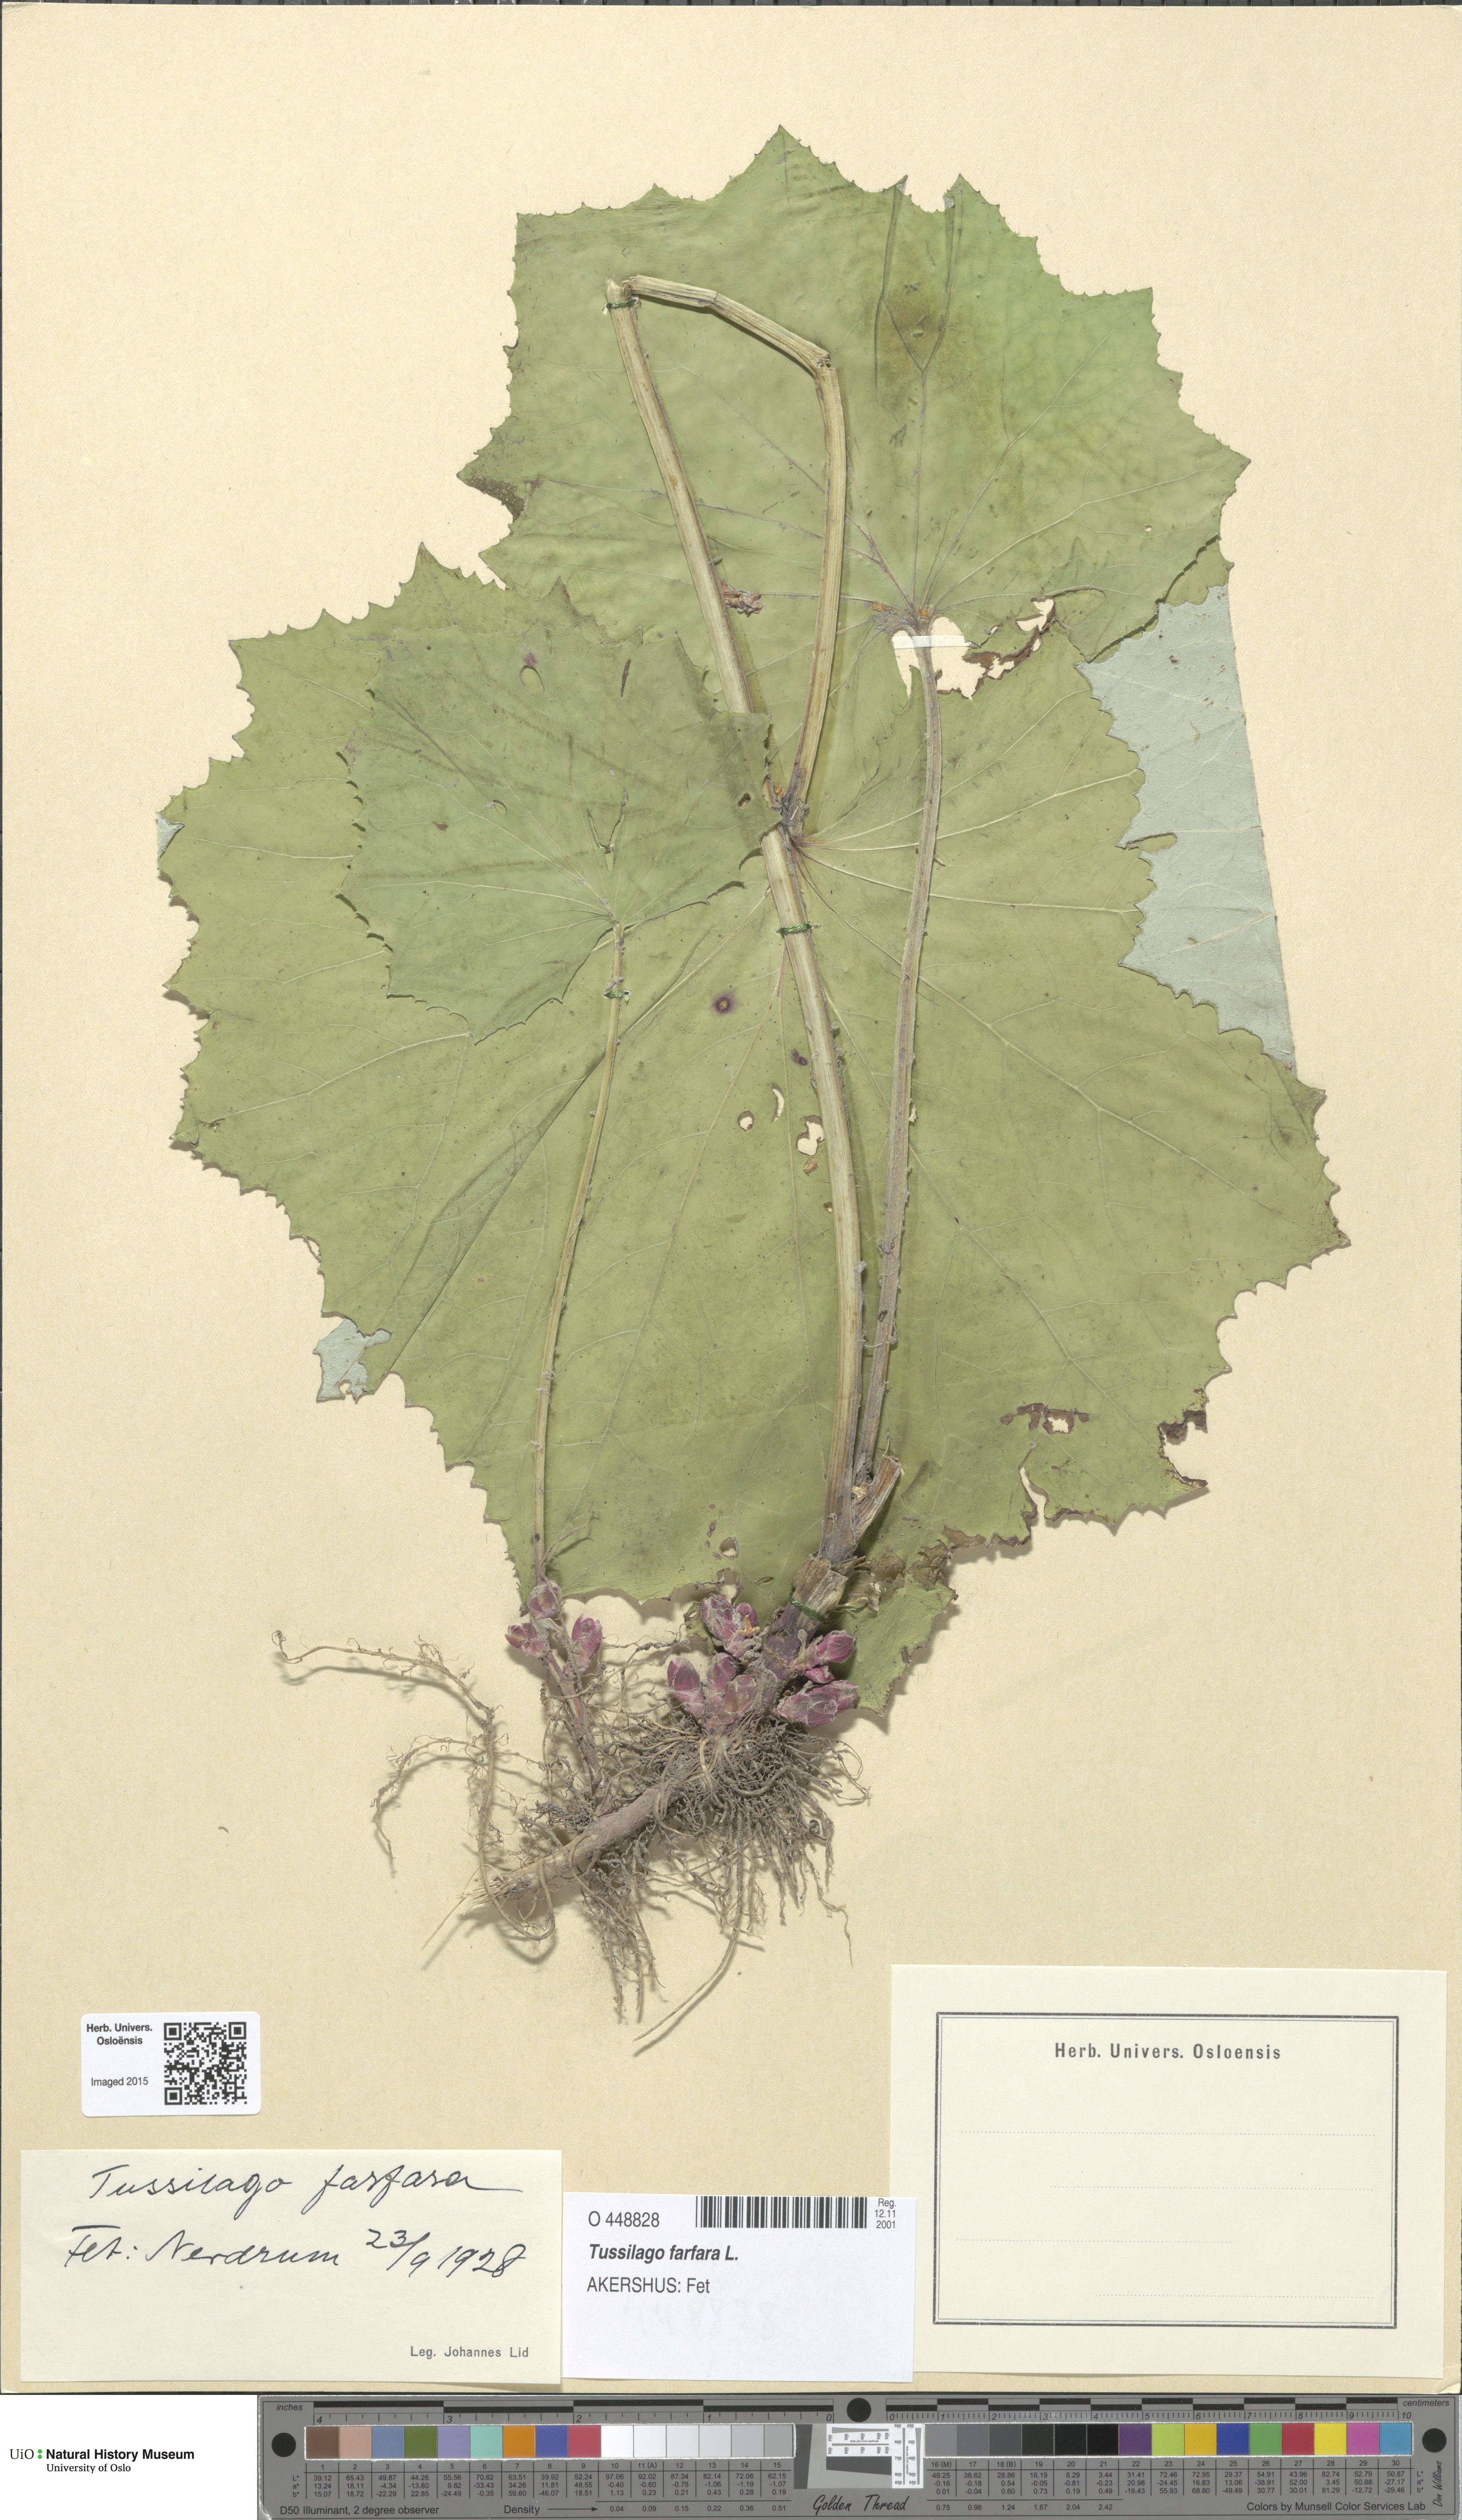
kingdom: Plantae
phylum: Tracheophyta
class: Magnoliopsida
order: Asterales
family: Asteraceae
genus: Tussilago
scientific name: Tussilago farfara
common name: Coltsfoot
